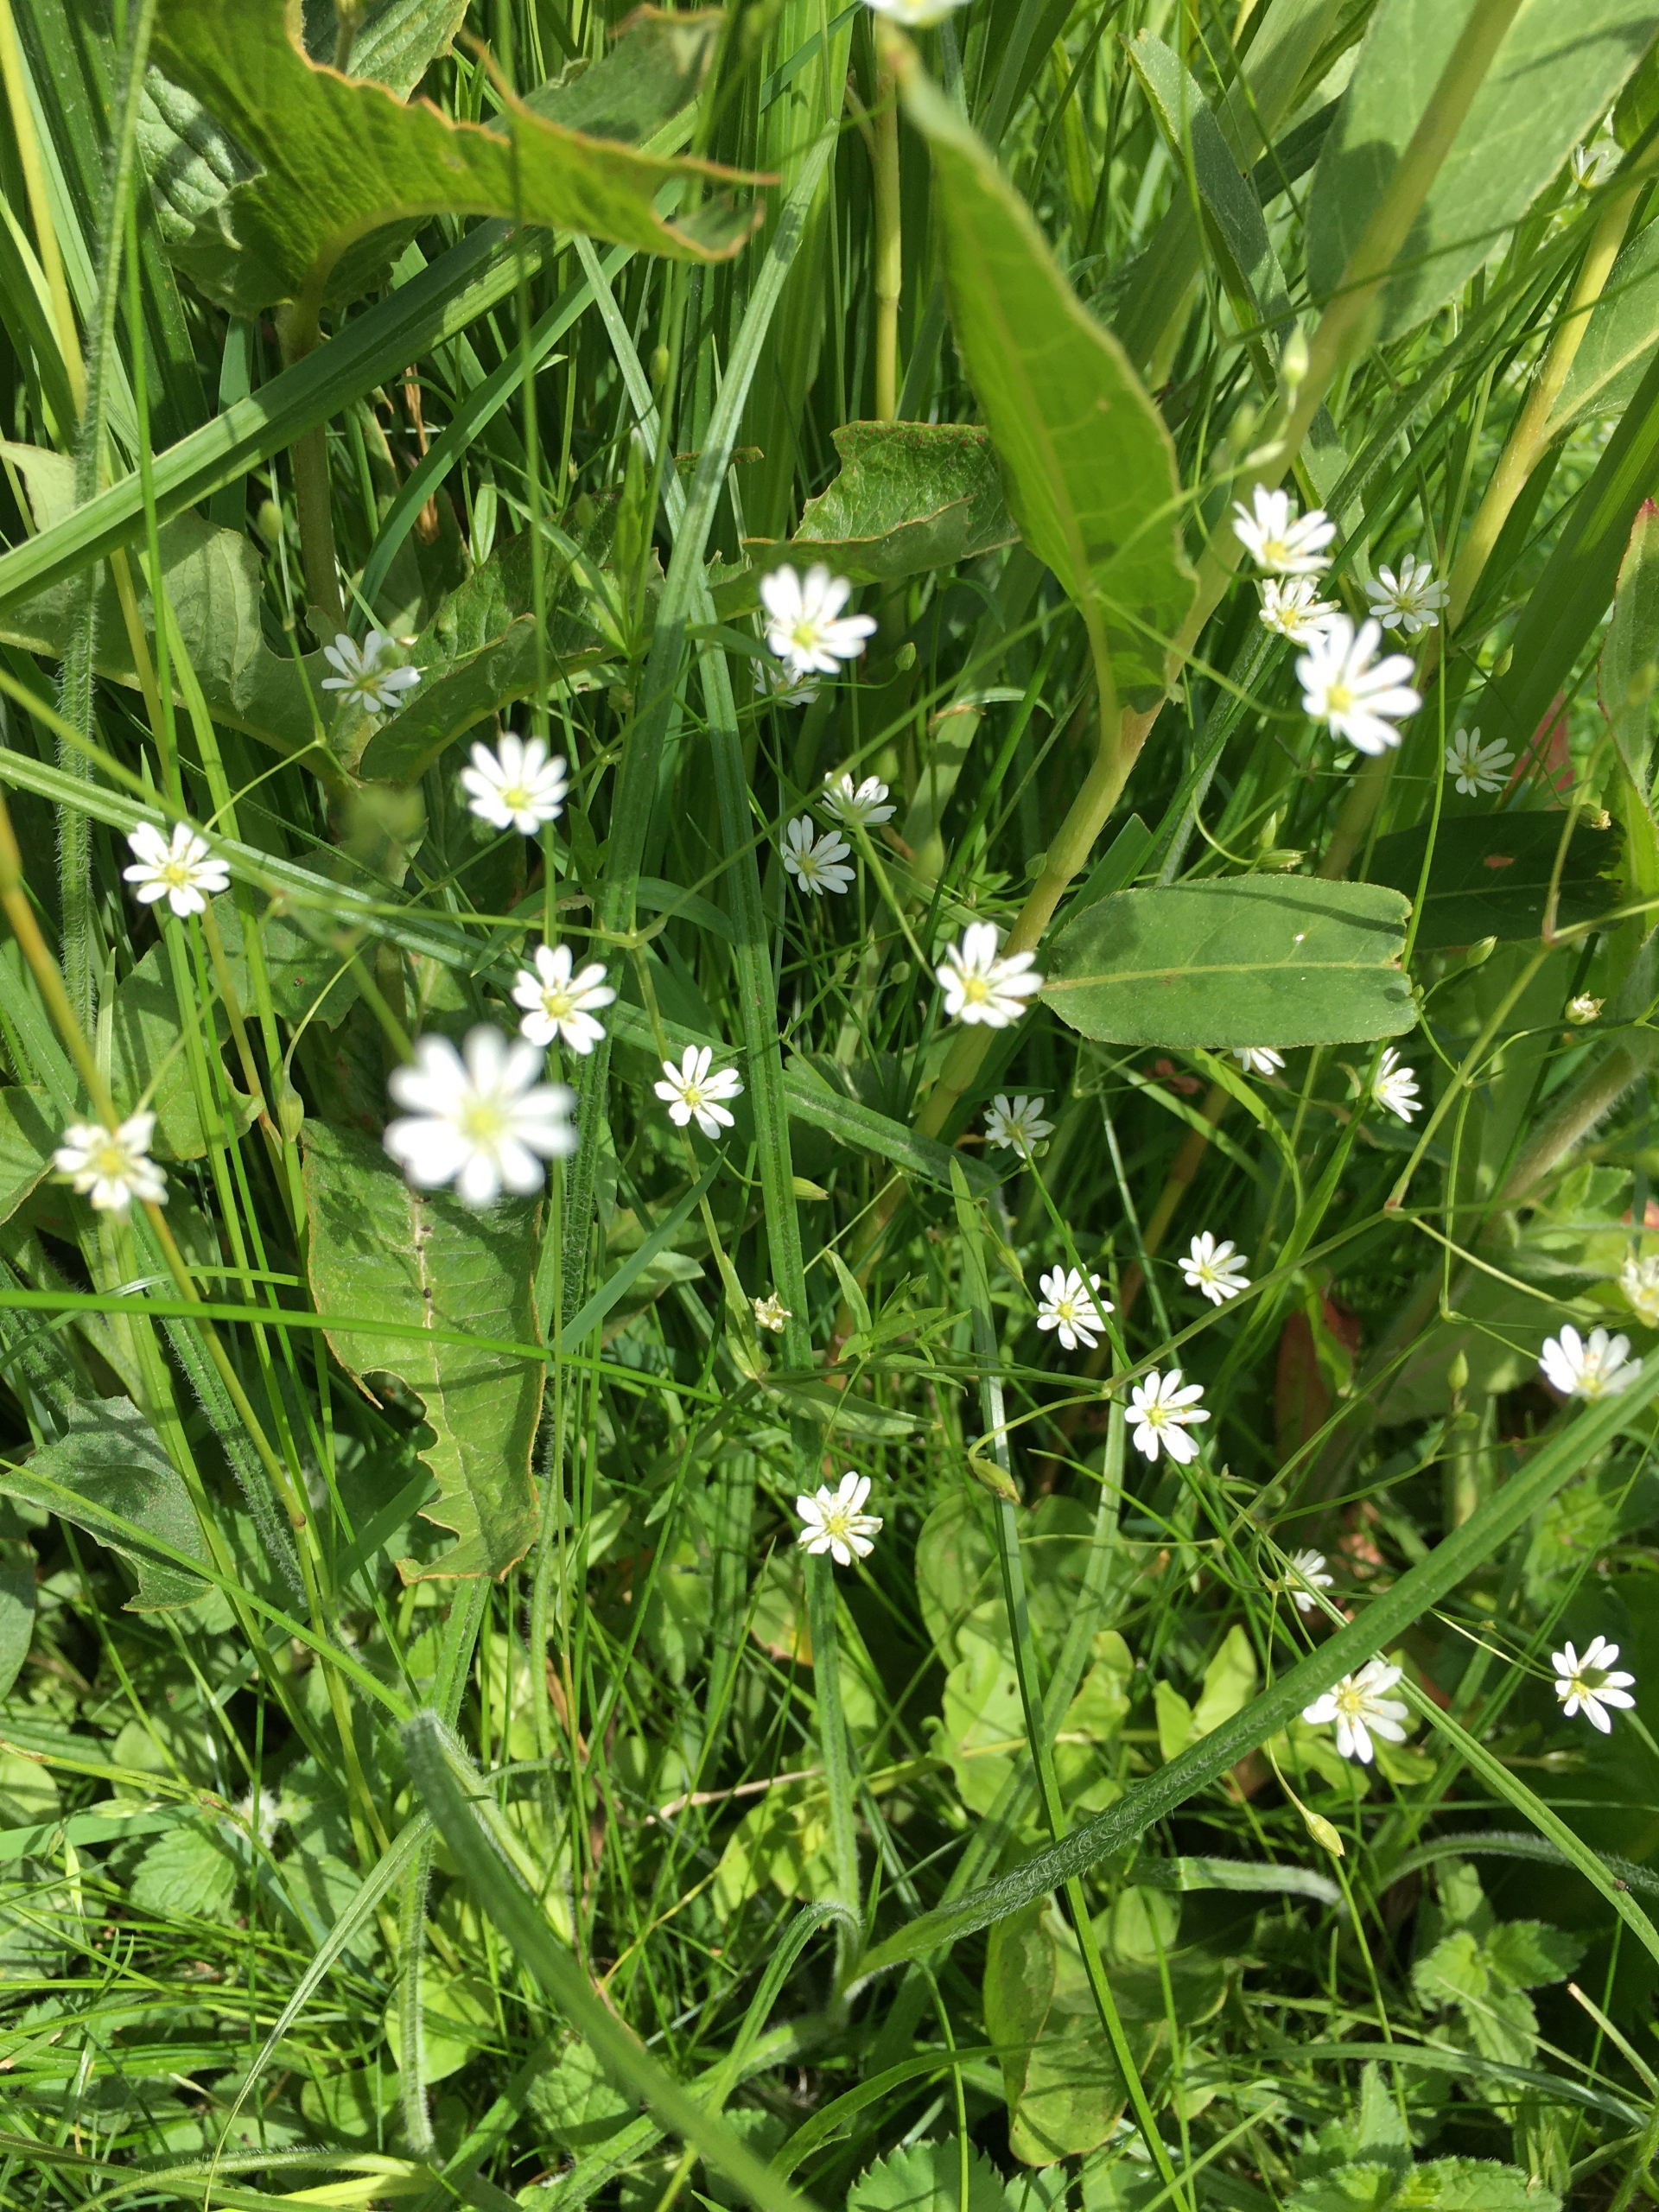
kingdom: Plantae
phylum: Tracheophyta
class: Magnoliopsida
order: Caryophyllales
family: Caryophyllaceae
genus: Stellaria
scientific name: Stellaria graminea
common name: Græsbladet fladstjerne
